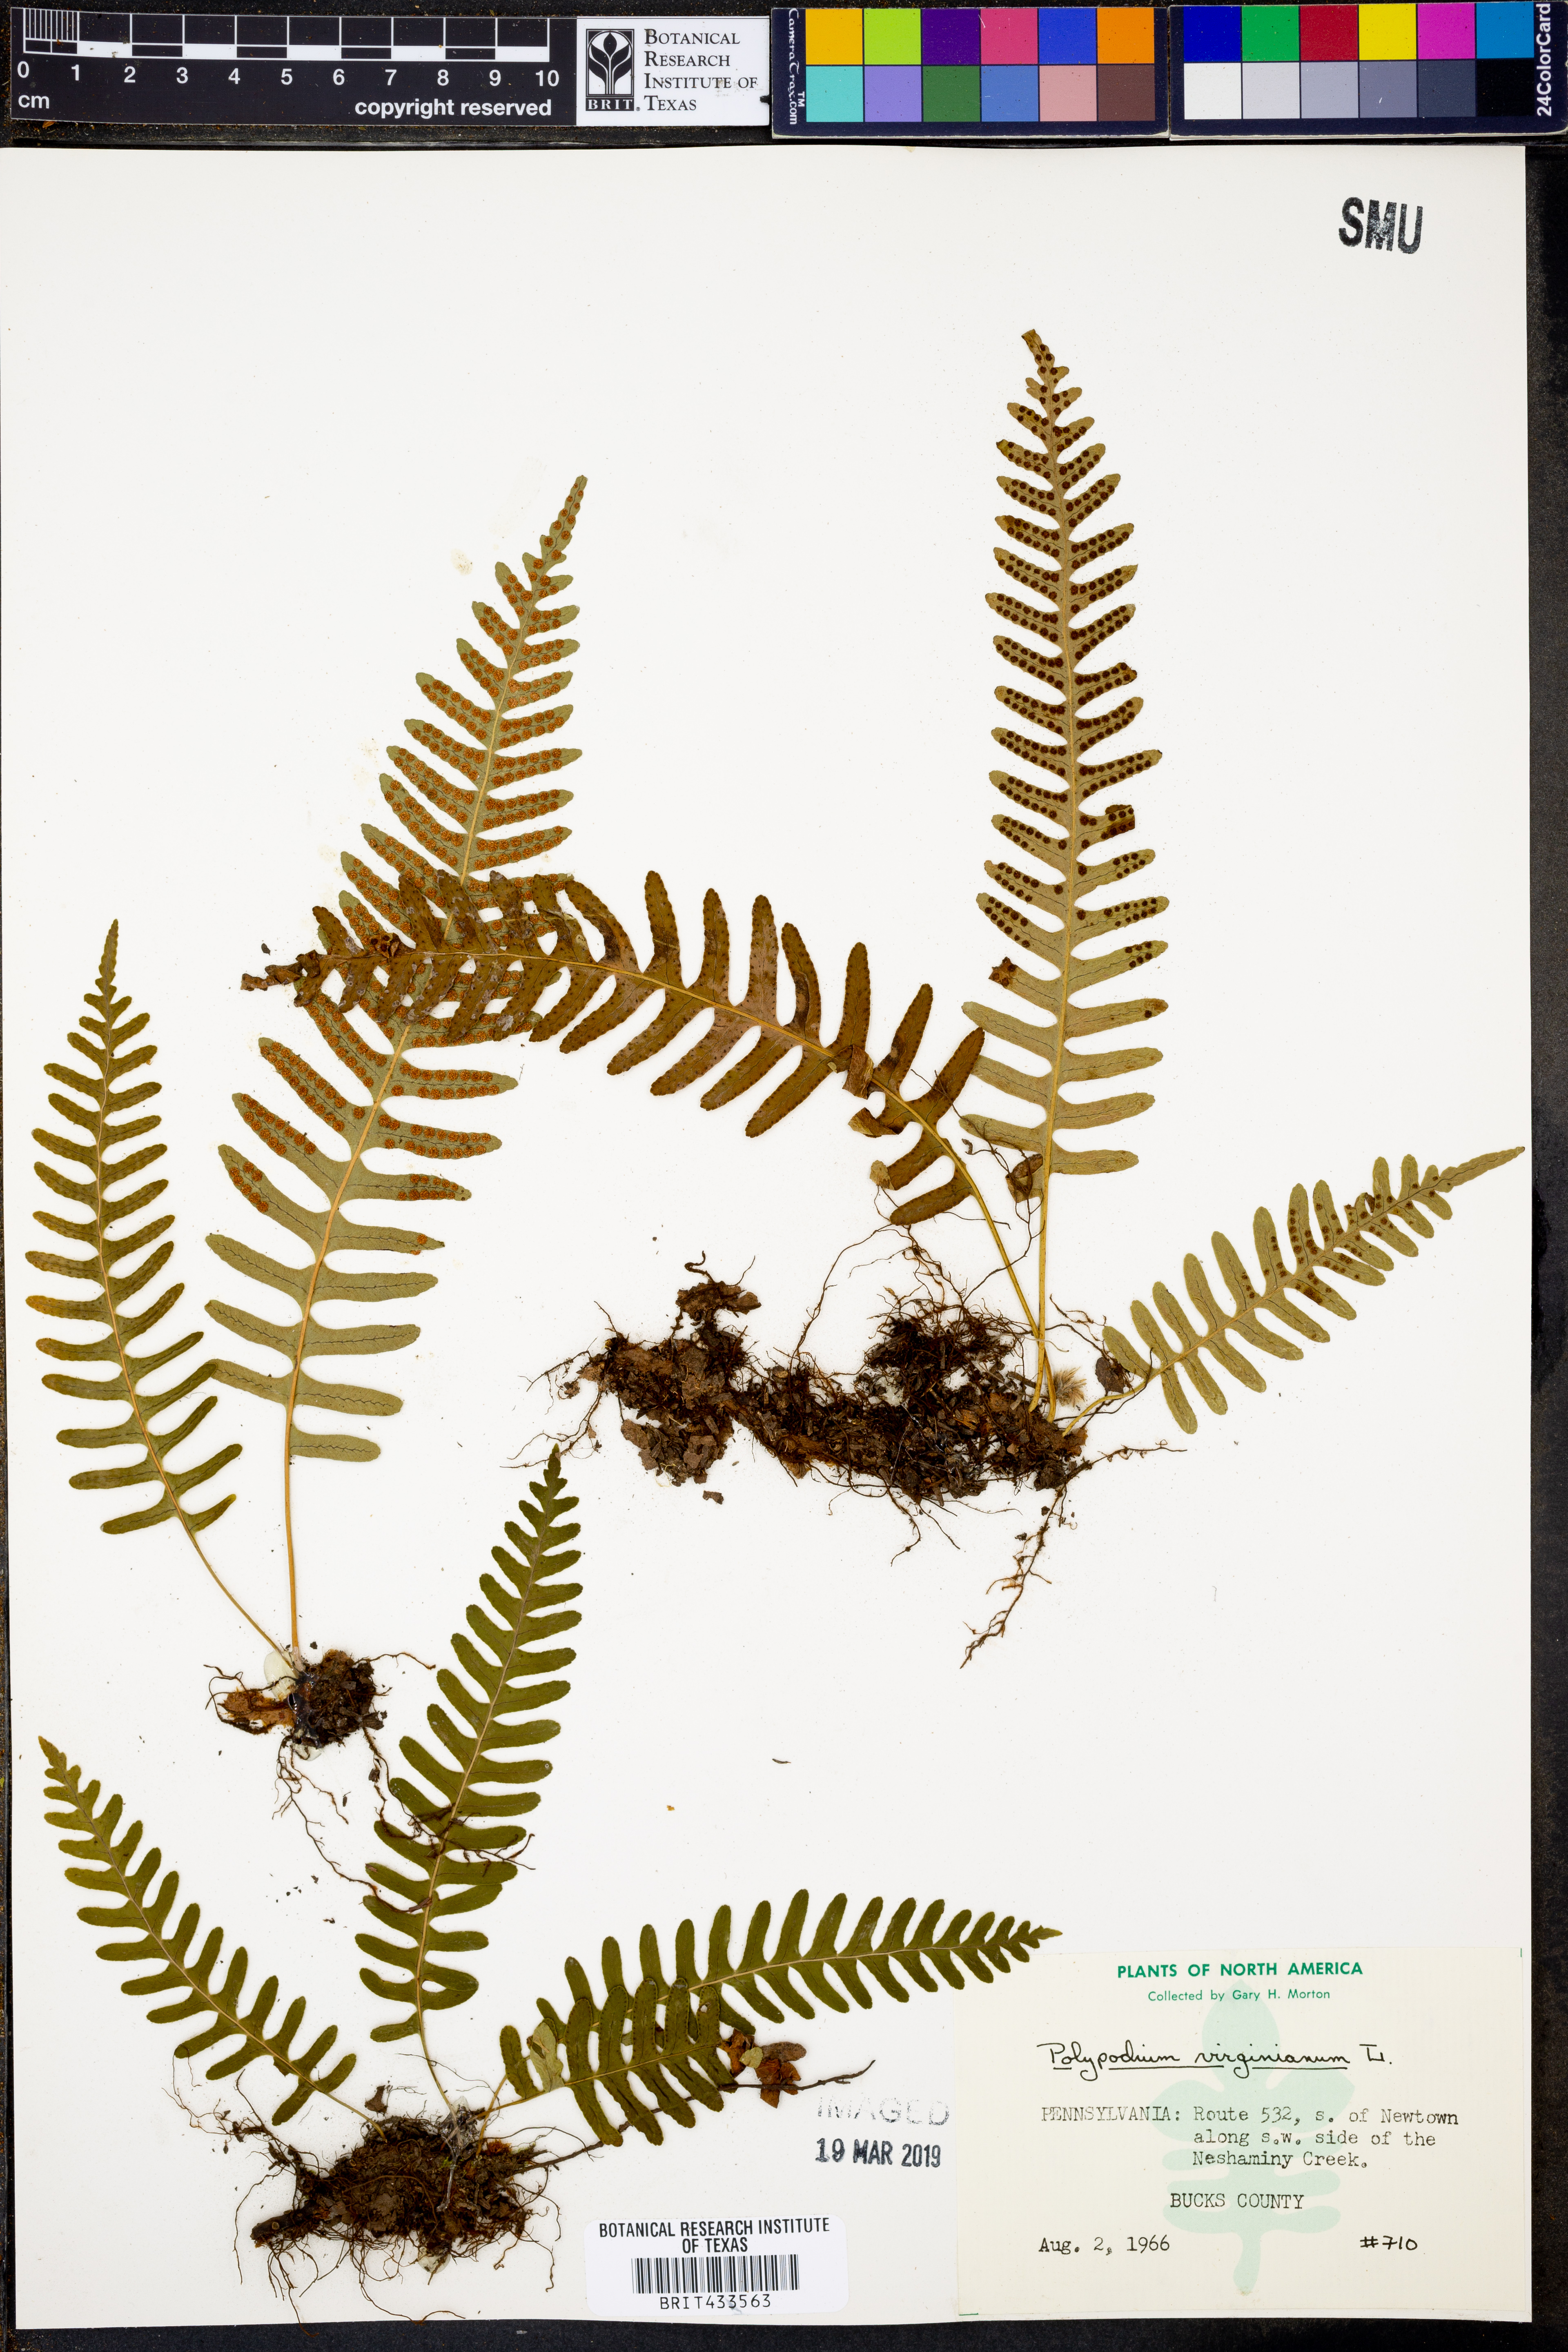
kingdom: Plantae
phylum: Tracheophyta
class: Polypodiopsida
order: Polypodiales
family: Polypodiaceae
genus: Polypodium
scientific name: Polypodium virginianum
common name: American wall fern
